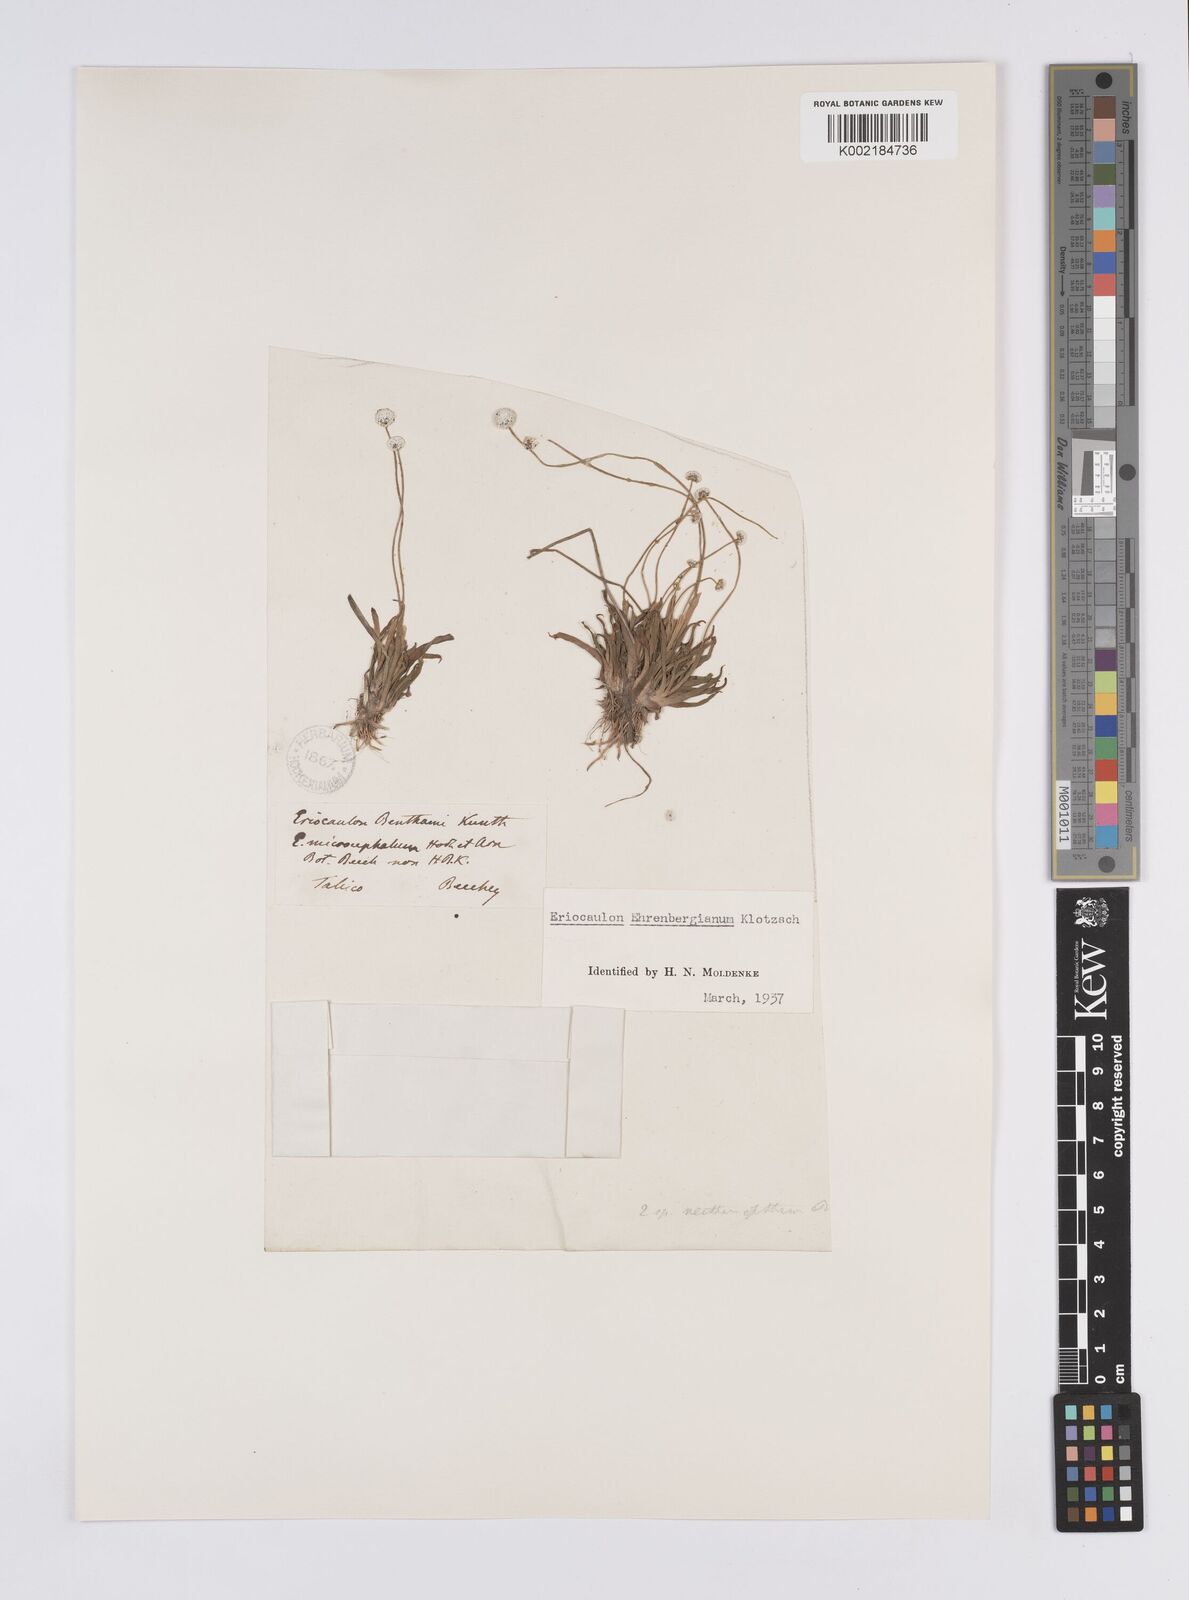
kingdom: Plantae
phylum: Tracheophyta
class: Liliopsida
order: Poales
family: Eriocaulaceae
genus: Eriocaulon
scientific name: Eriocaulon ehrenbergianum
